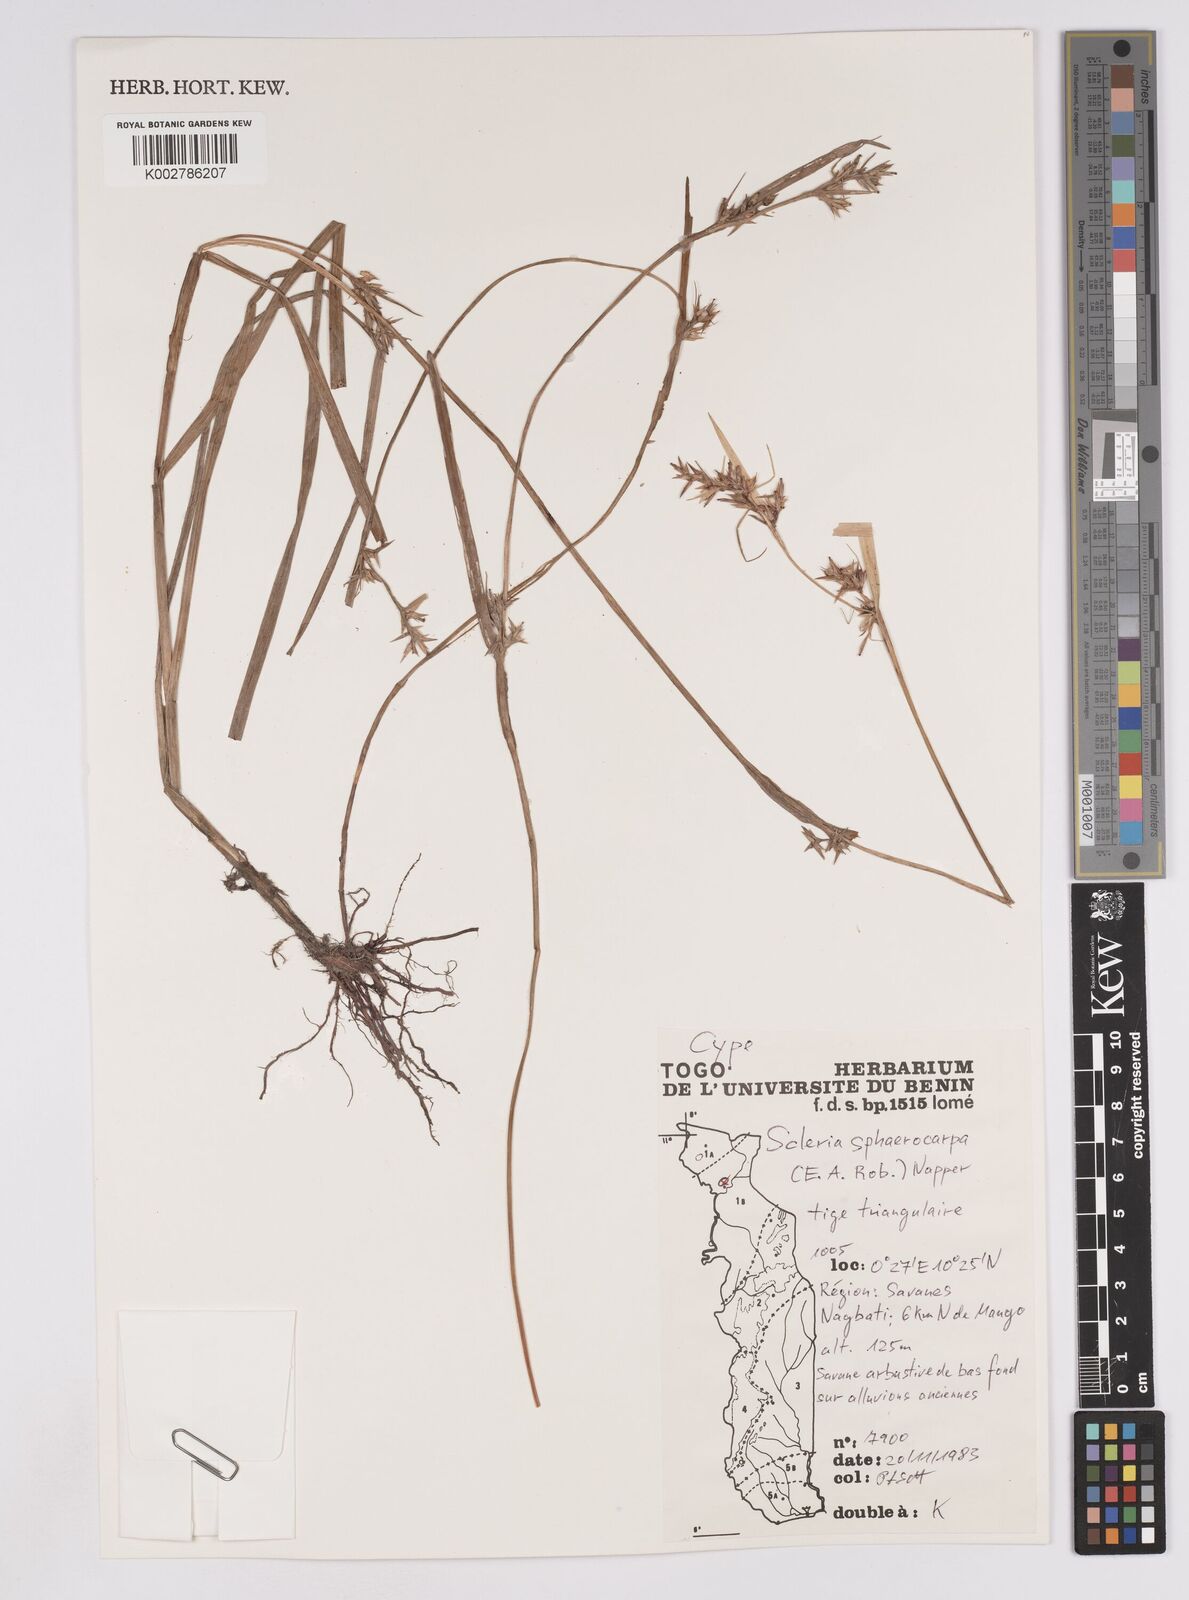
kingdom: Plantae
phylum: Tracheophyta
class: Liliopsida
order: Poales
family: Cyperaceae
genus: Scleria
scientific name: Scleria tessellata
